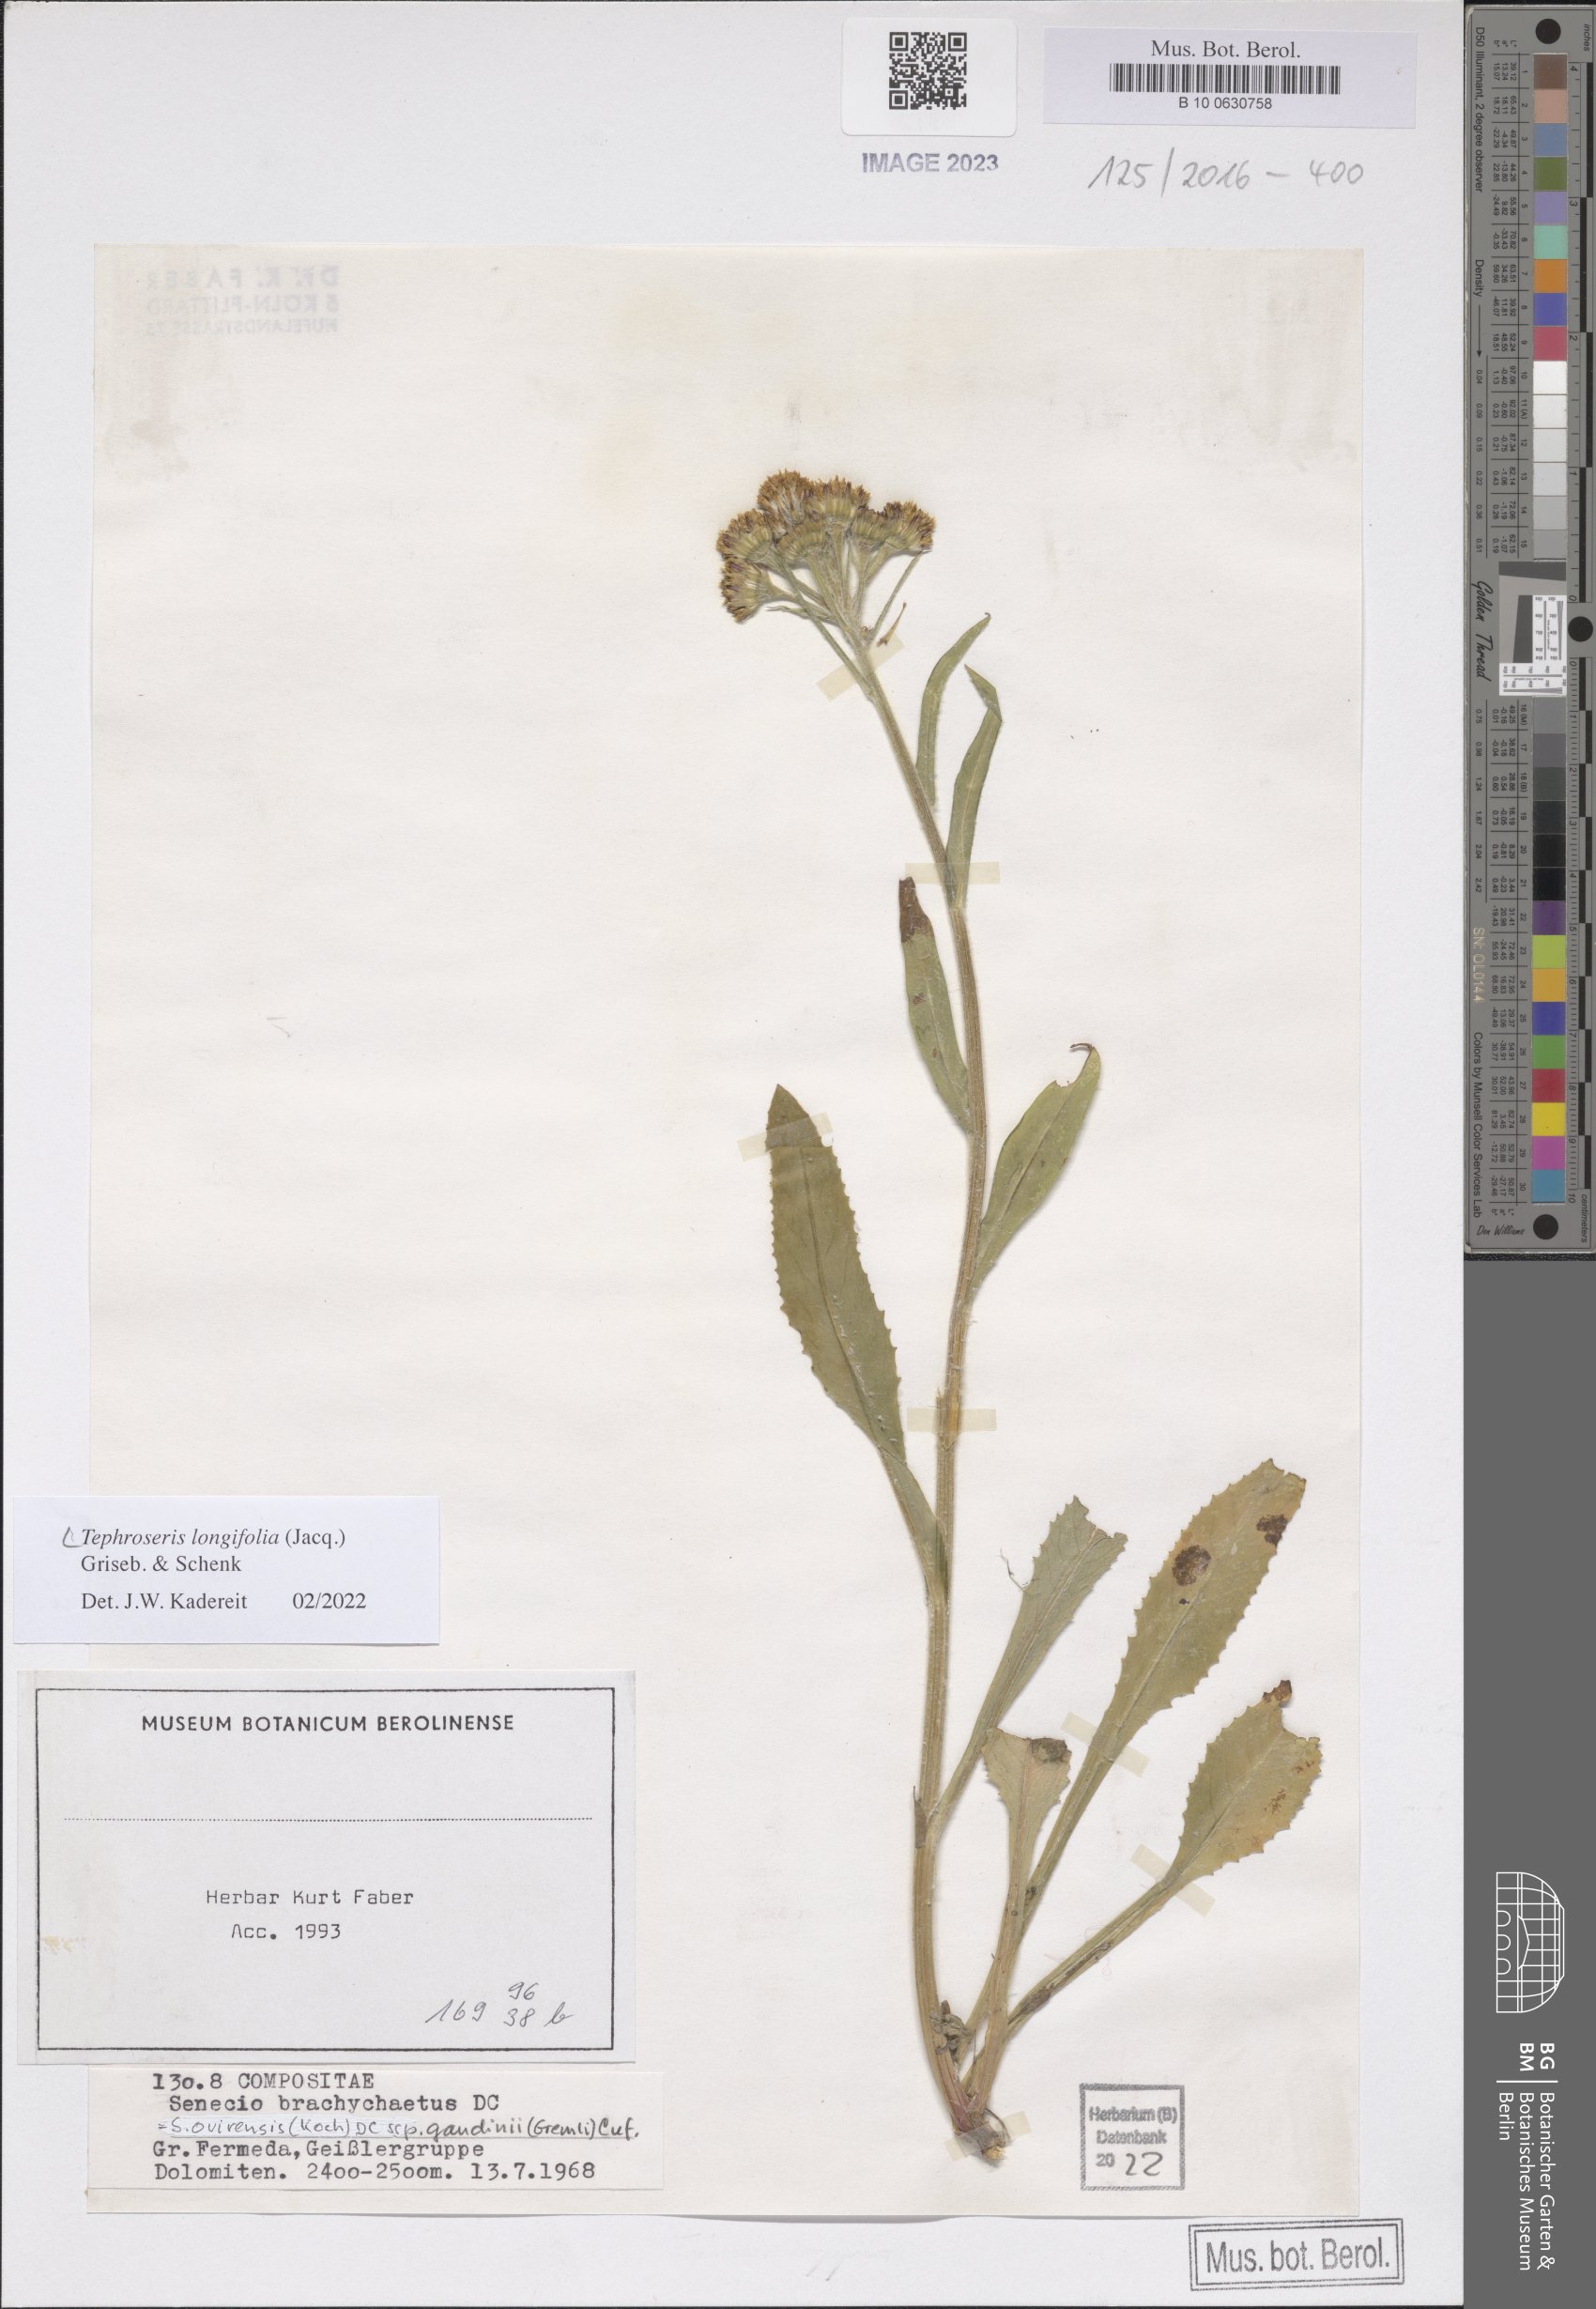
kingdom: Plantae
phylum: Tracheophyta
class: Magnoliopsida
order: Asterales
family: Asteraceae
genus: Tephroseris
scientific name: Tephroseris longifolia
